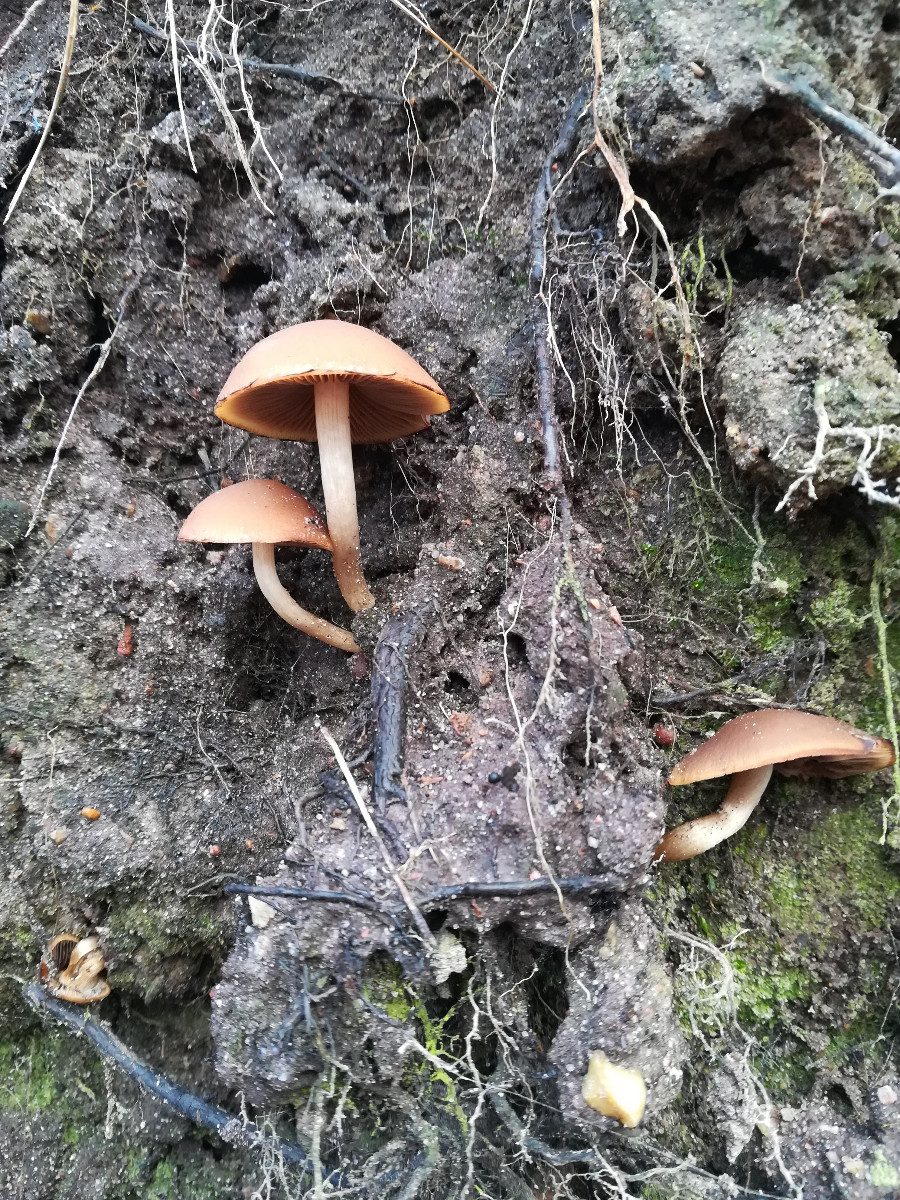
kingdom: Fungi
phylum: Basidiomycota
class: Agaricomycetes
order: Agaricales
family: Psathyrellaceae
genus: Psathyrella
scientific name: Psathyrella piluliformis
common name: lysstokket mørkhat
